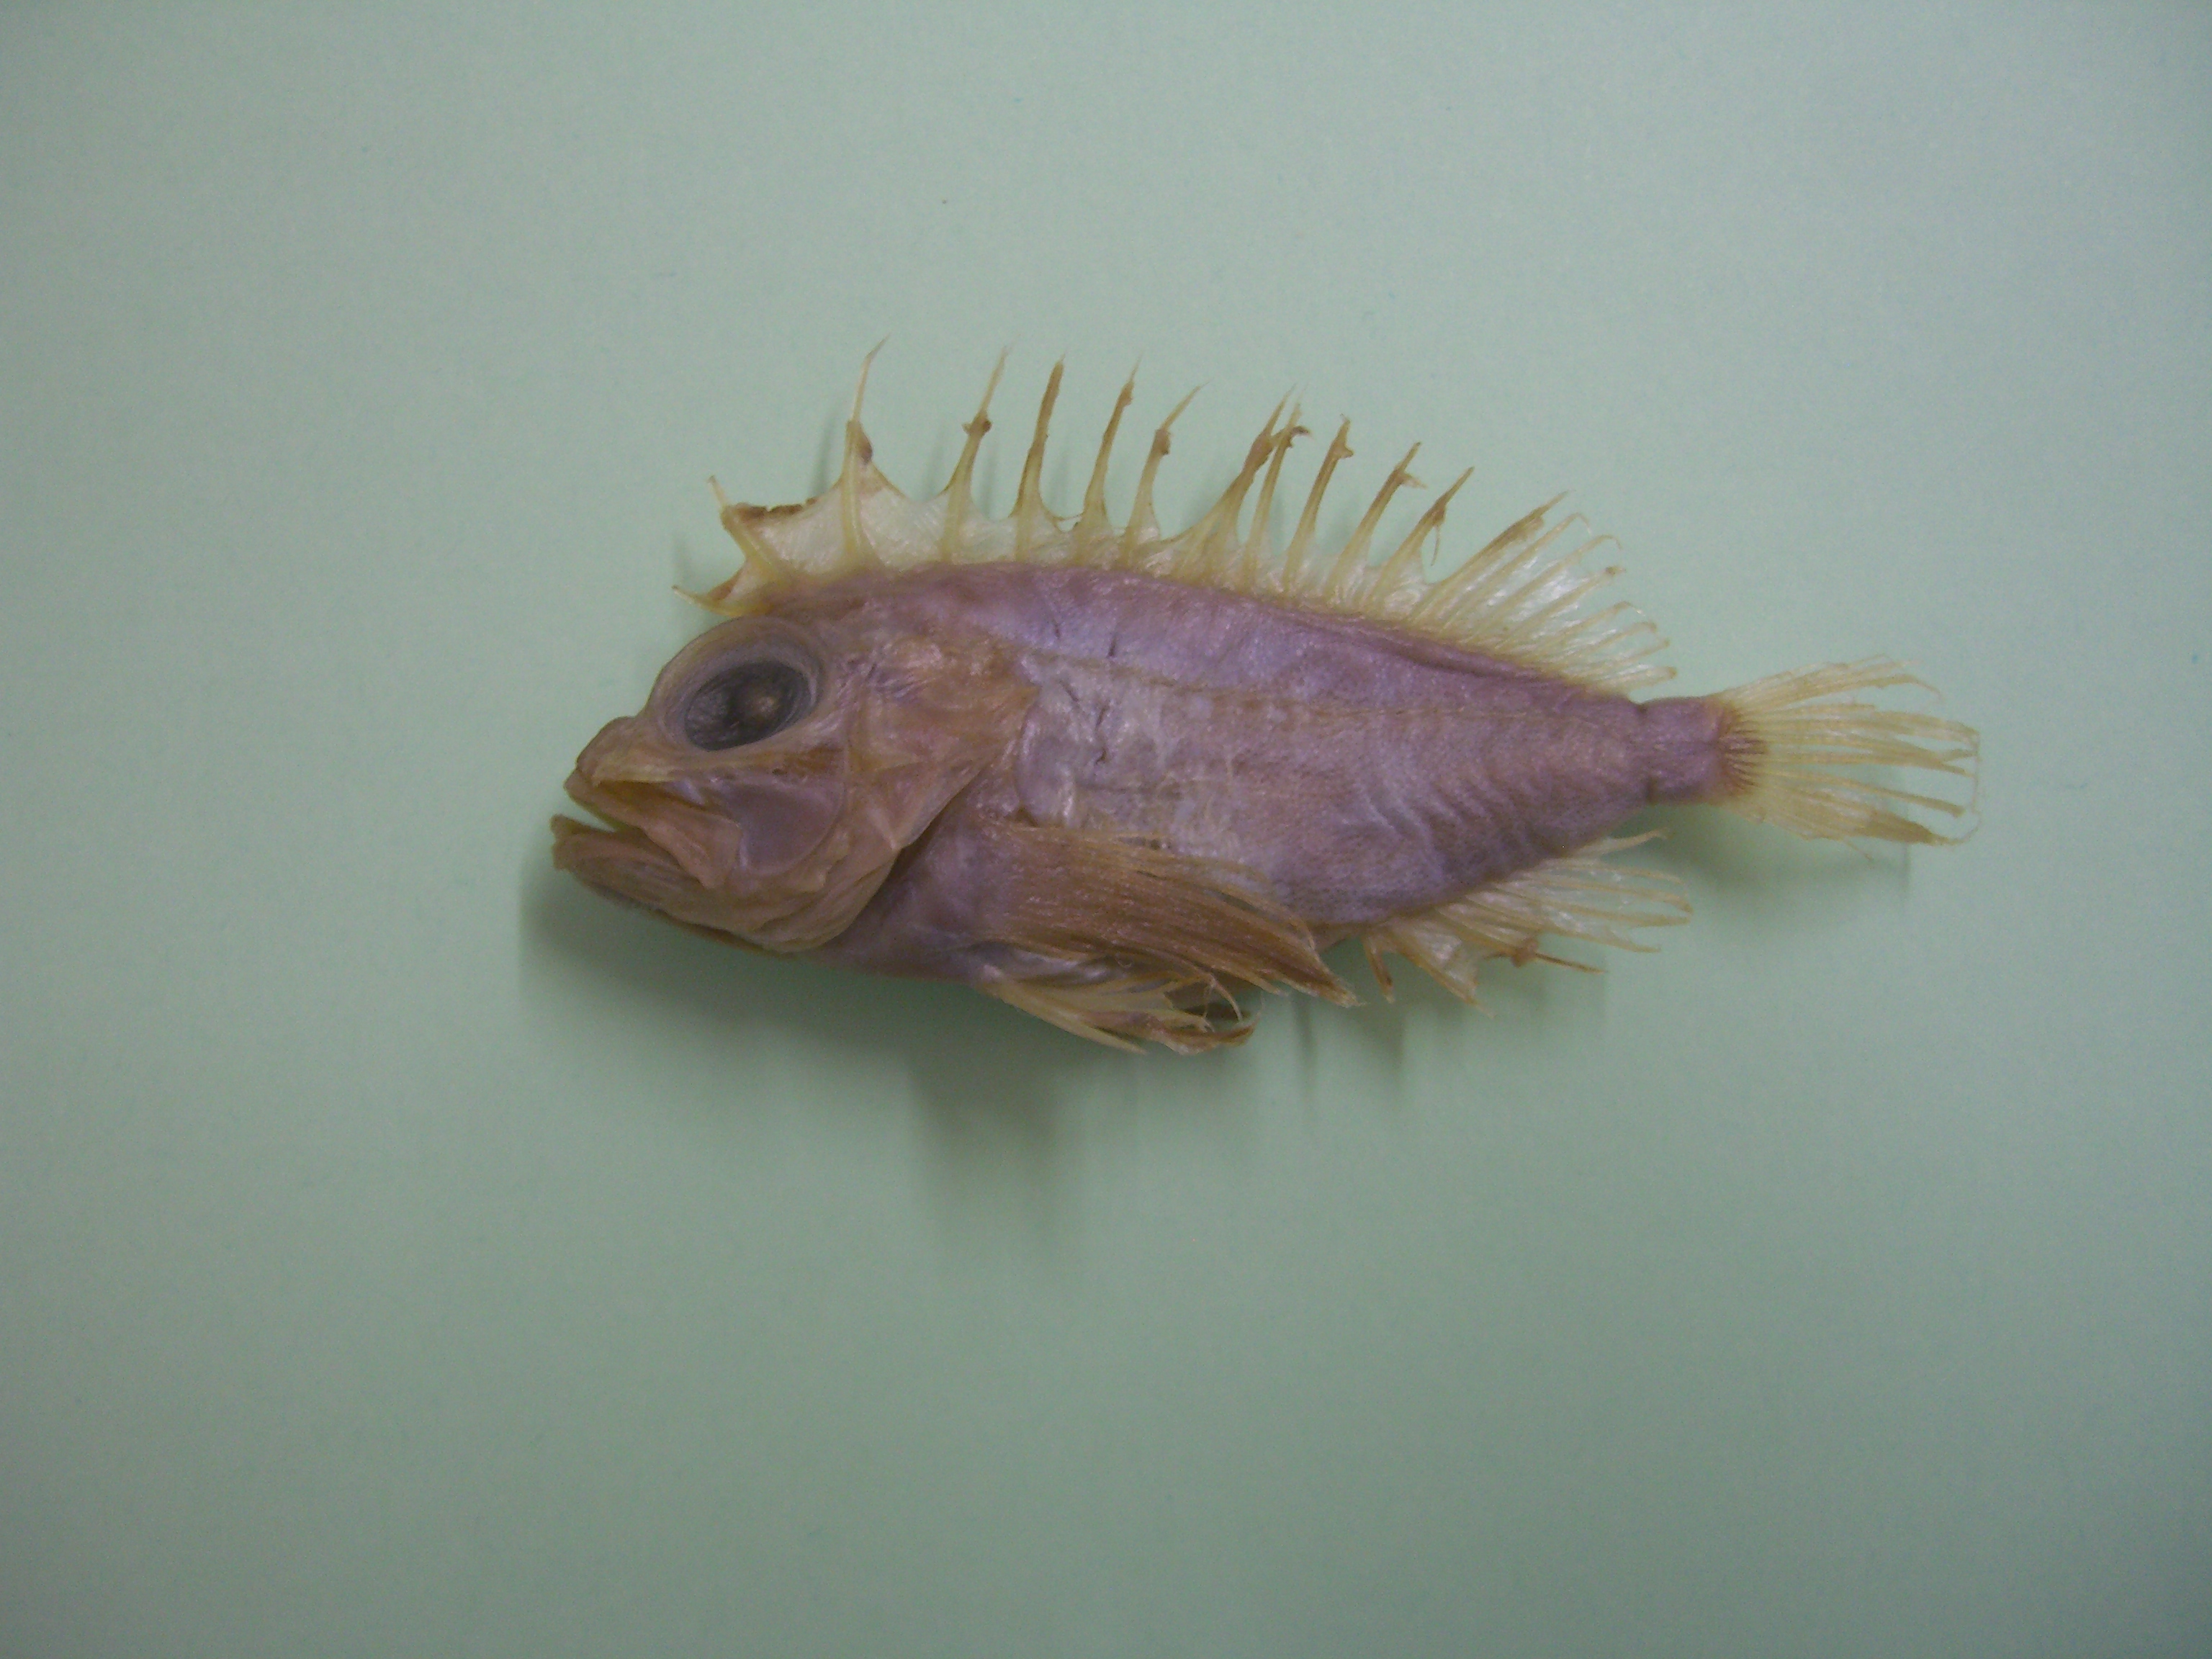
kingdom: Animalia
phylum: Chordata
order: Scorpaeniformes
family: Tetrarogidae
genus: Neocentropogon
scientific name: Neocentropogon profundus
